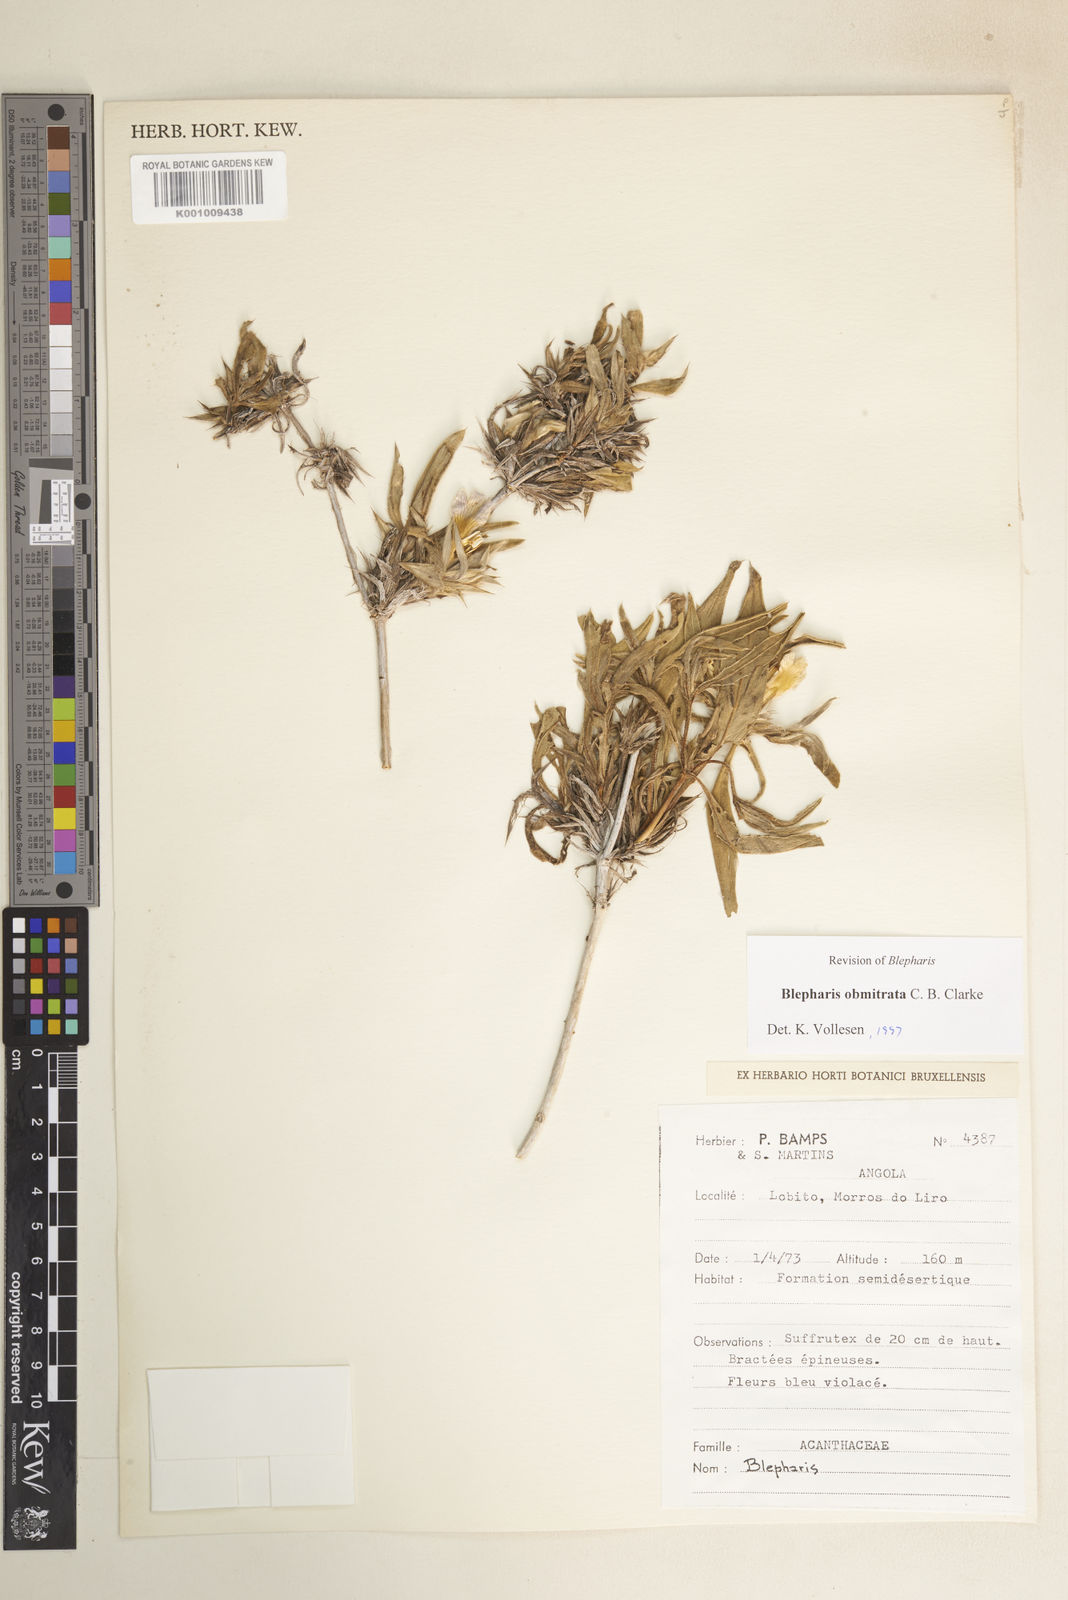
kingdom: Plantae
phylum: Tracheophyta
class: Magnoliopsida
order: Lamiales
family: Acanthaceae
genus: Blepharis
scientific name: Blepharis obmitrata
